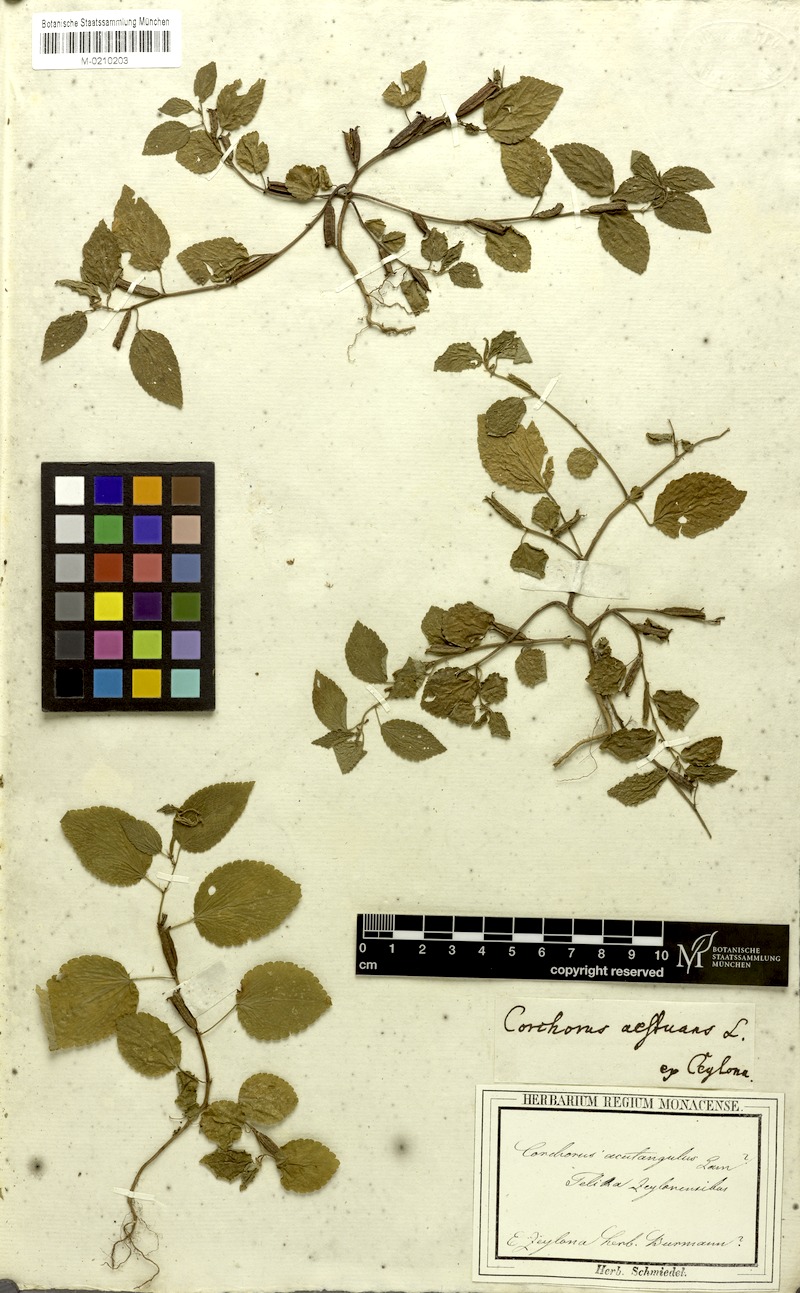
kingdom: Plantae
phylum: Tracheophyta
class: Magnoliopsida
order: Malvales
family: Malvaceae
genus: Corchorus
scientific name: Corchorus aestuans
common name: Jute
